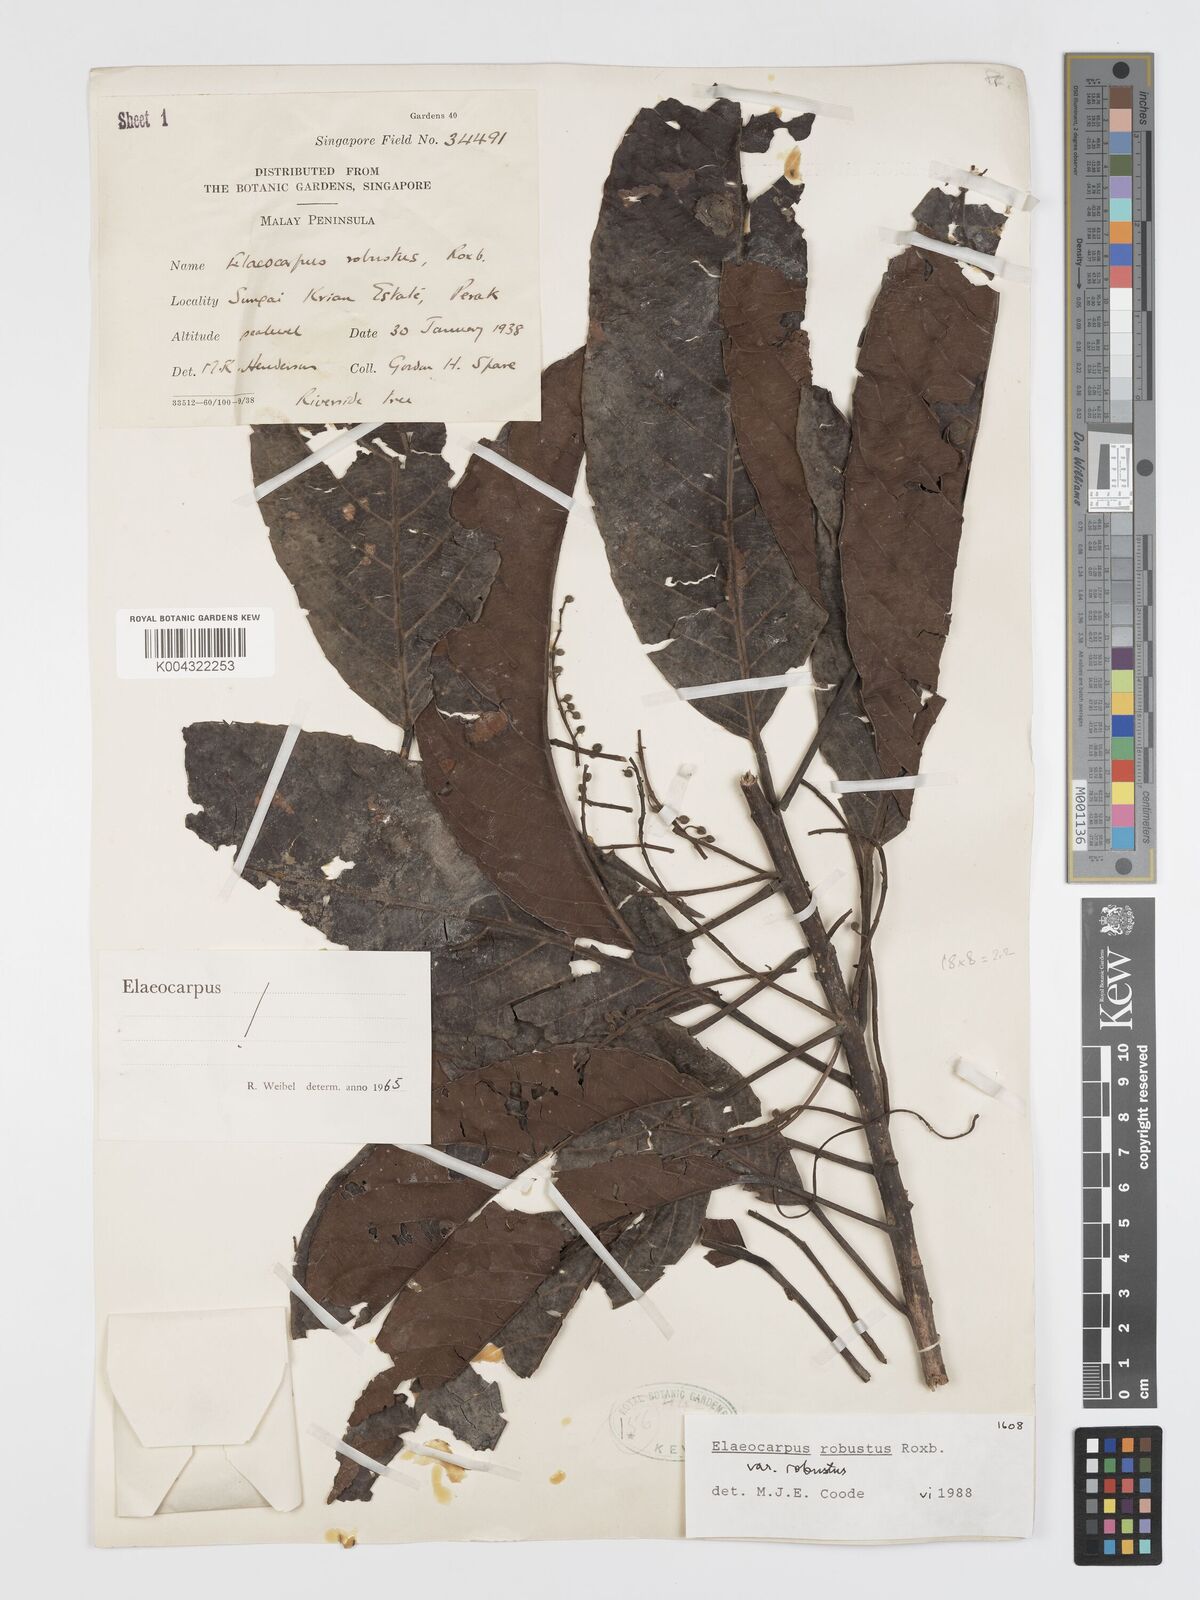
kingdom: Plantae
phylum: Tracheophyta
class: Magnoliopsida
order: Oxalidales
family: Elaeocarpaceae
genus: Elaeocarpus
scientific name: Elaeocarpus robustus
